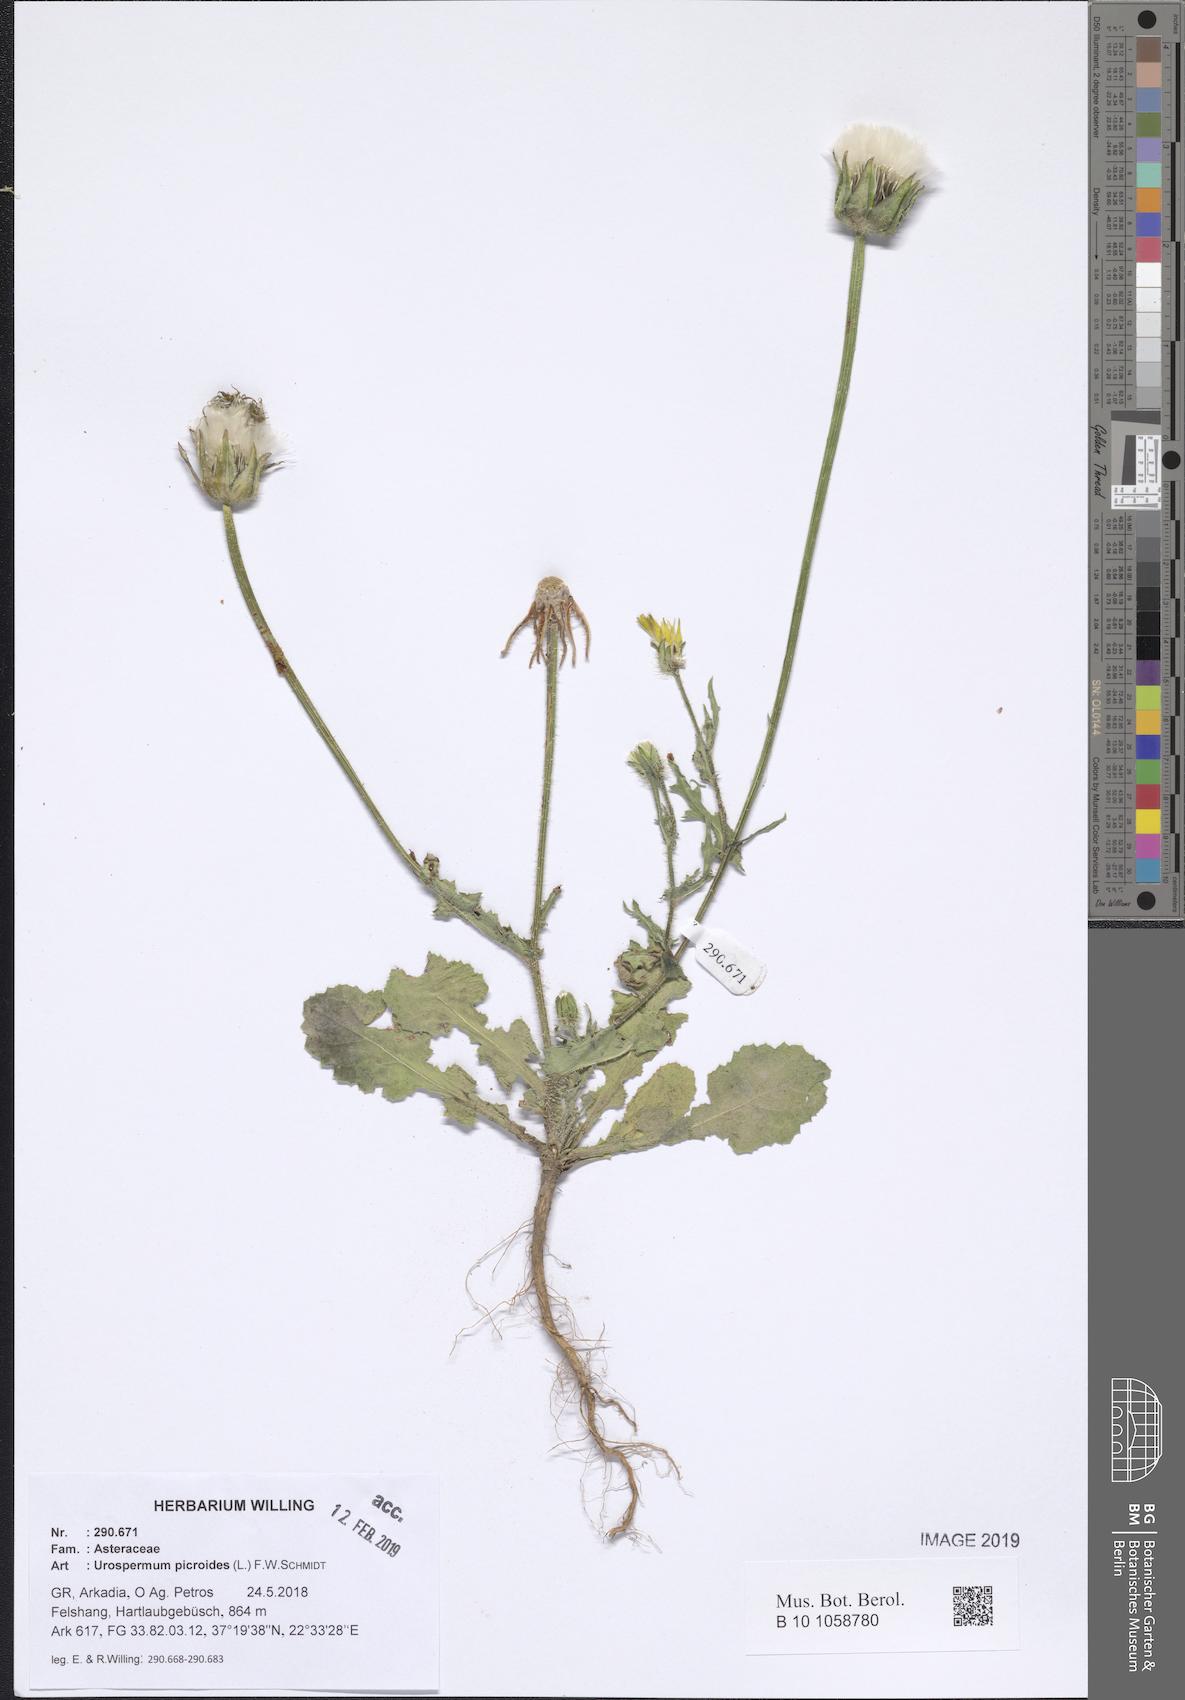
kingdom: Plantae
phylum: Tracheophyta
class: Magnoliopsida
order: Asterales
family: Asteraceae
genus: Urospermum
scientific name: Urospermum picroides
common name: False hawkbit
